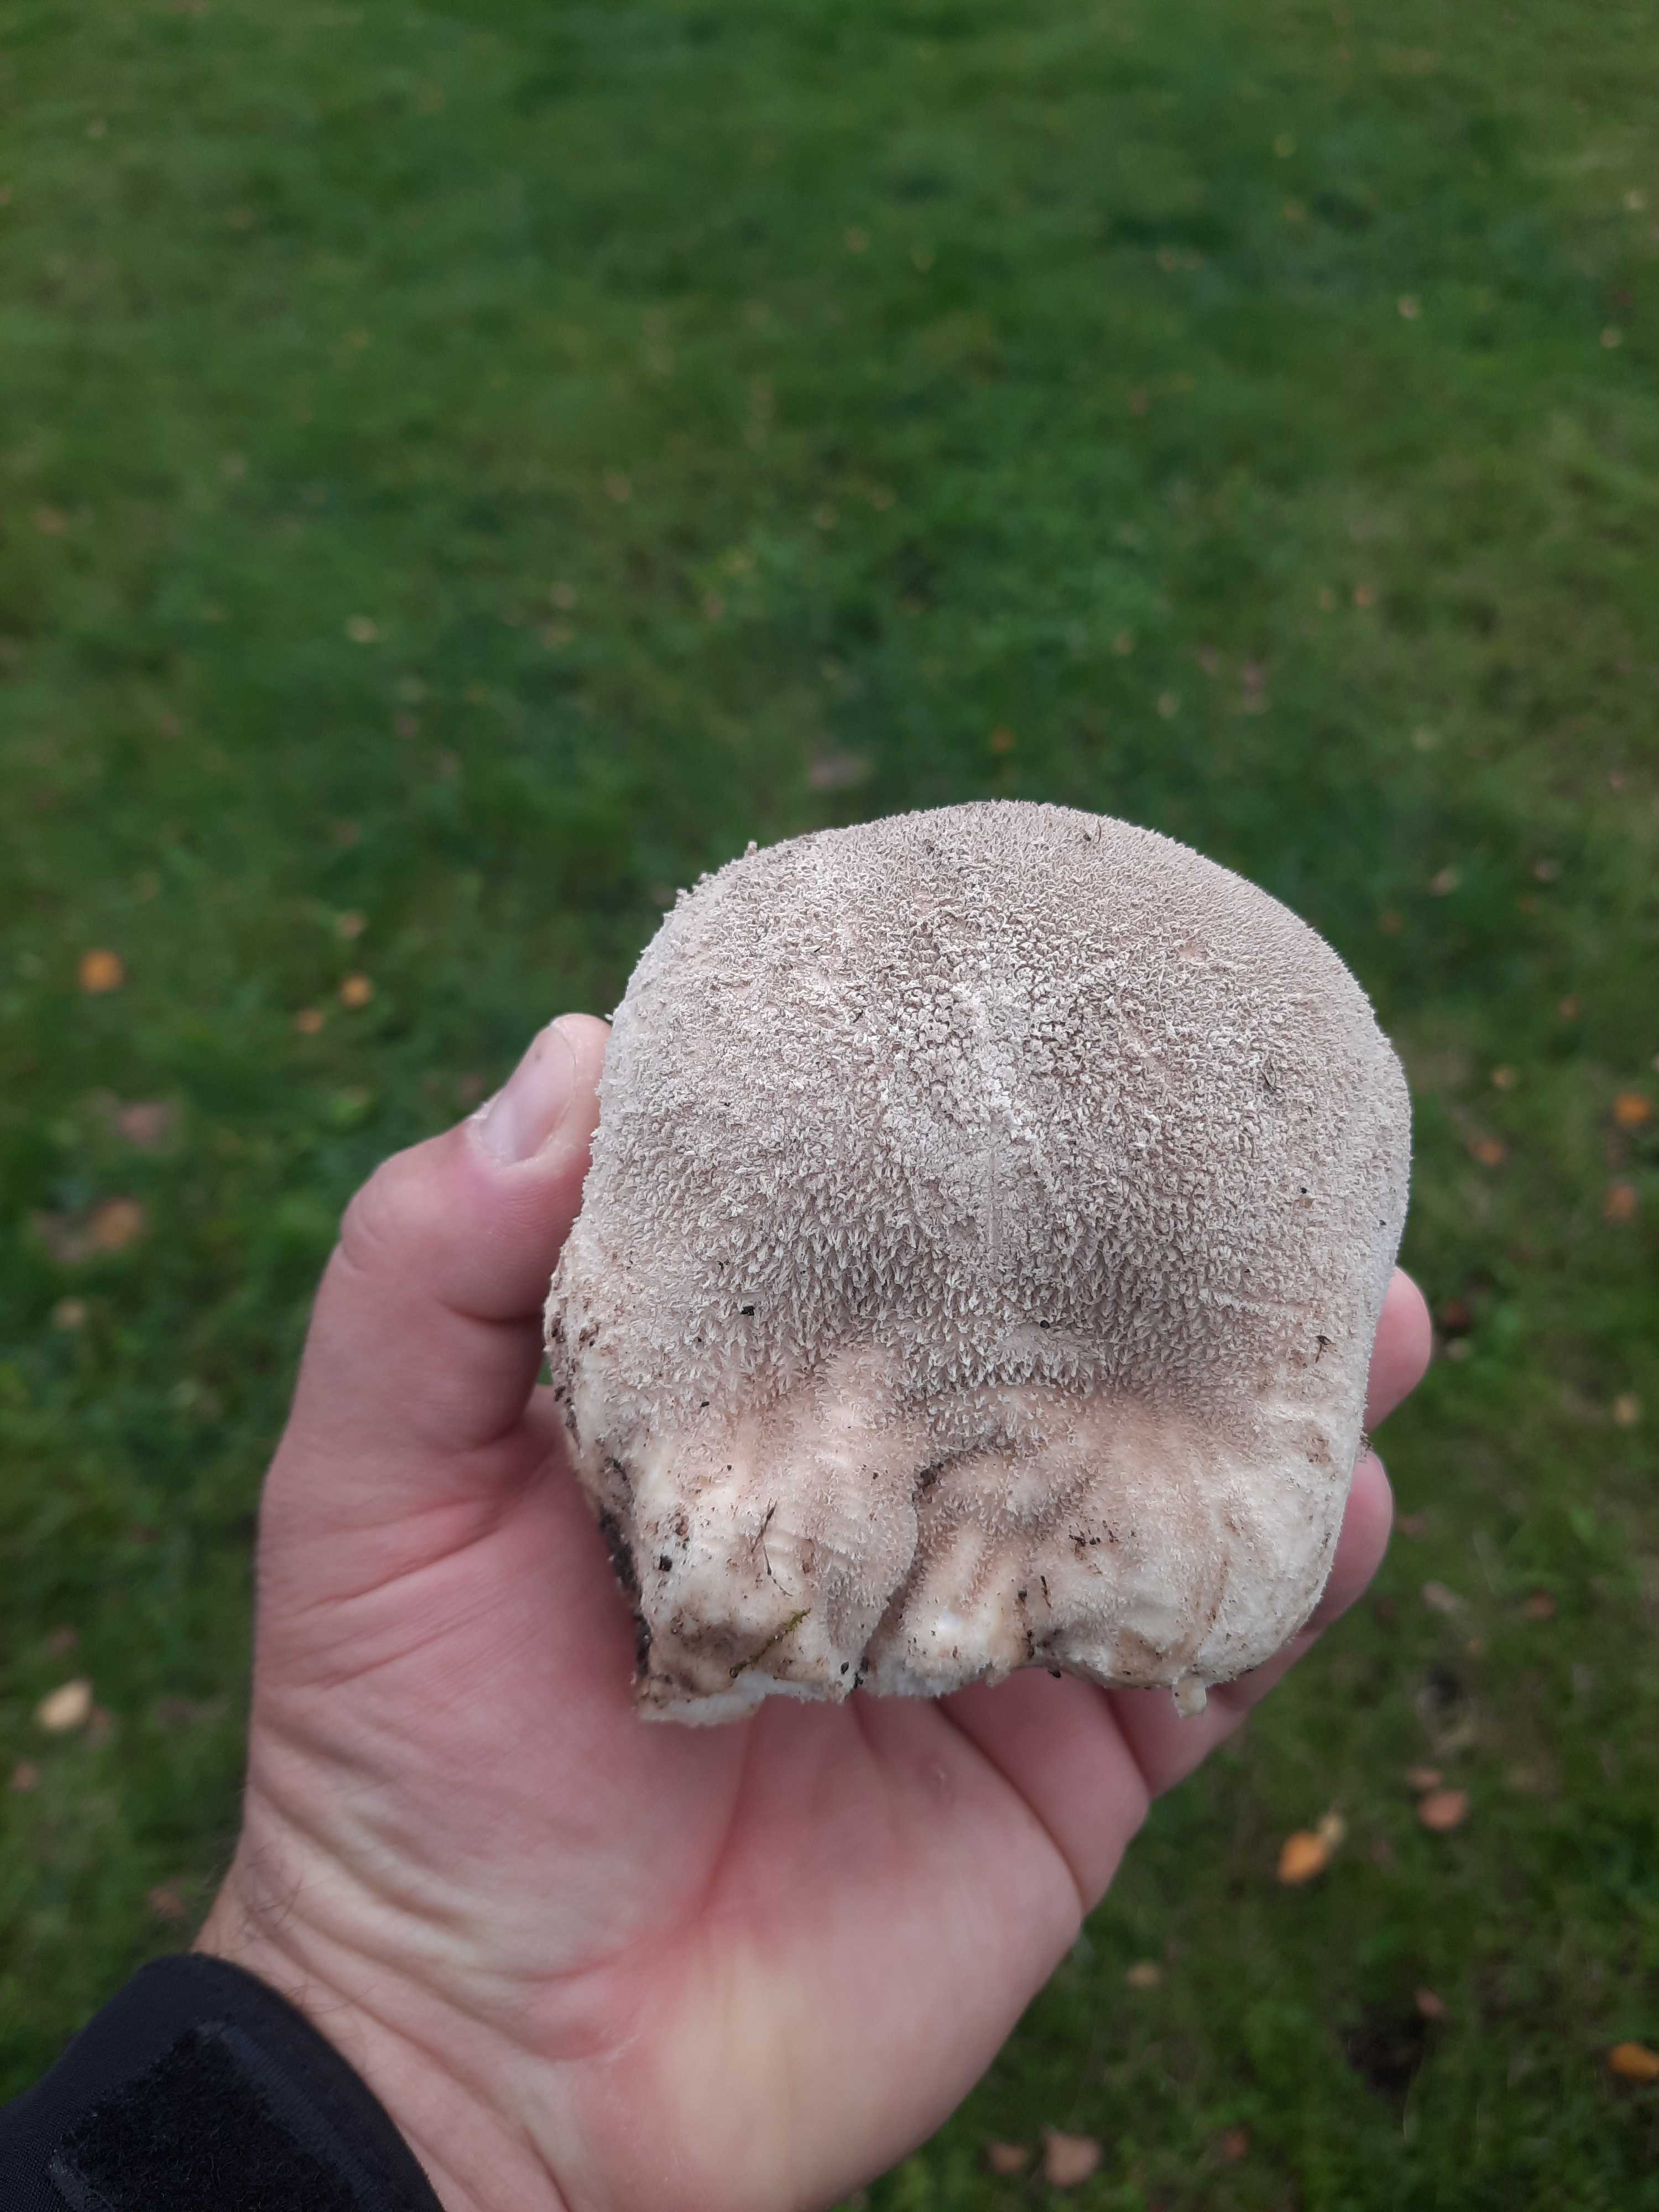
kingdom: Fungi
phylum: Basidiomycota
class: Agaricomycetes
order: Agaricales
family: Lycoperdaceae
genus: Bovistella
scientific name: Bovistella utriformis
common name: skællet støvbold
